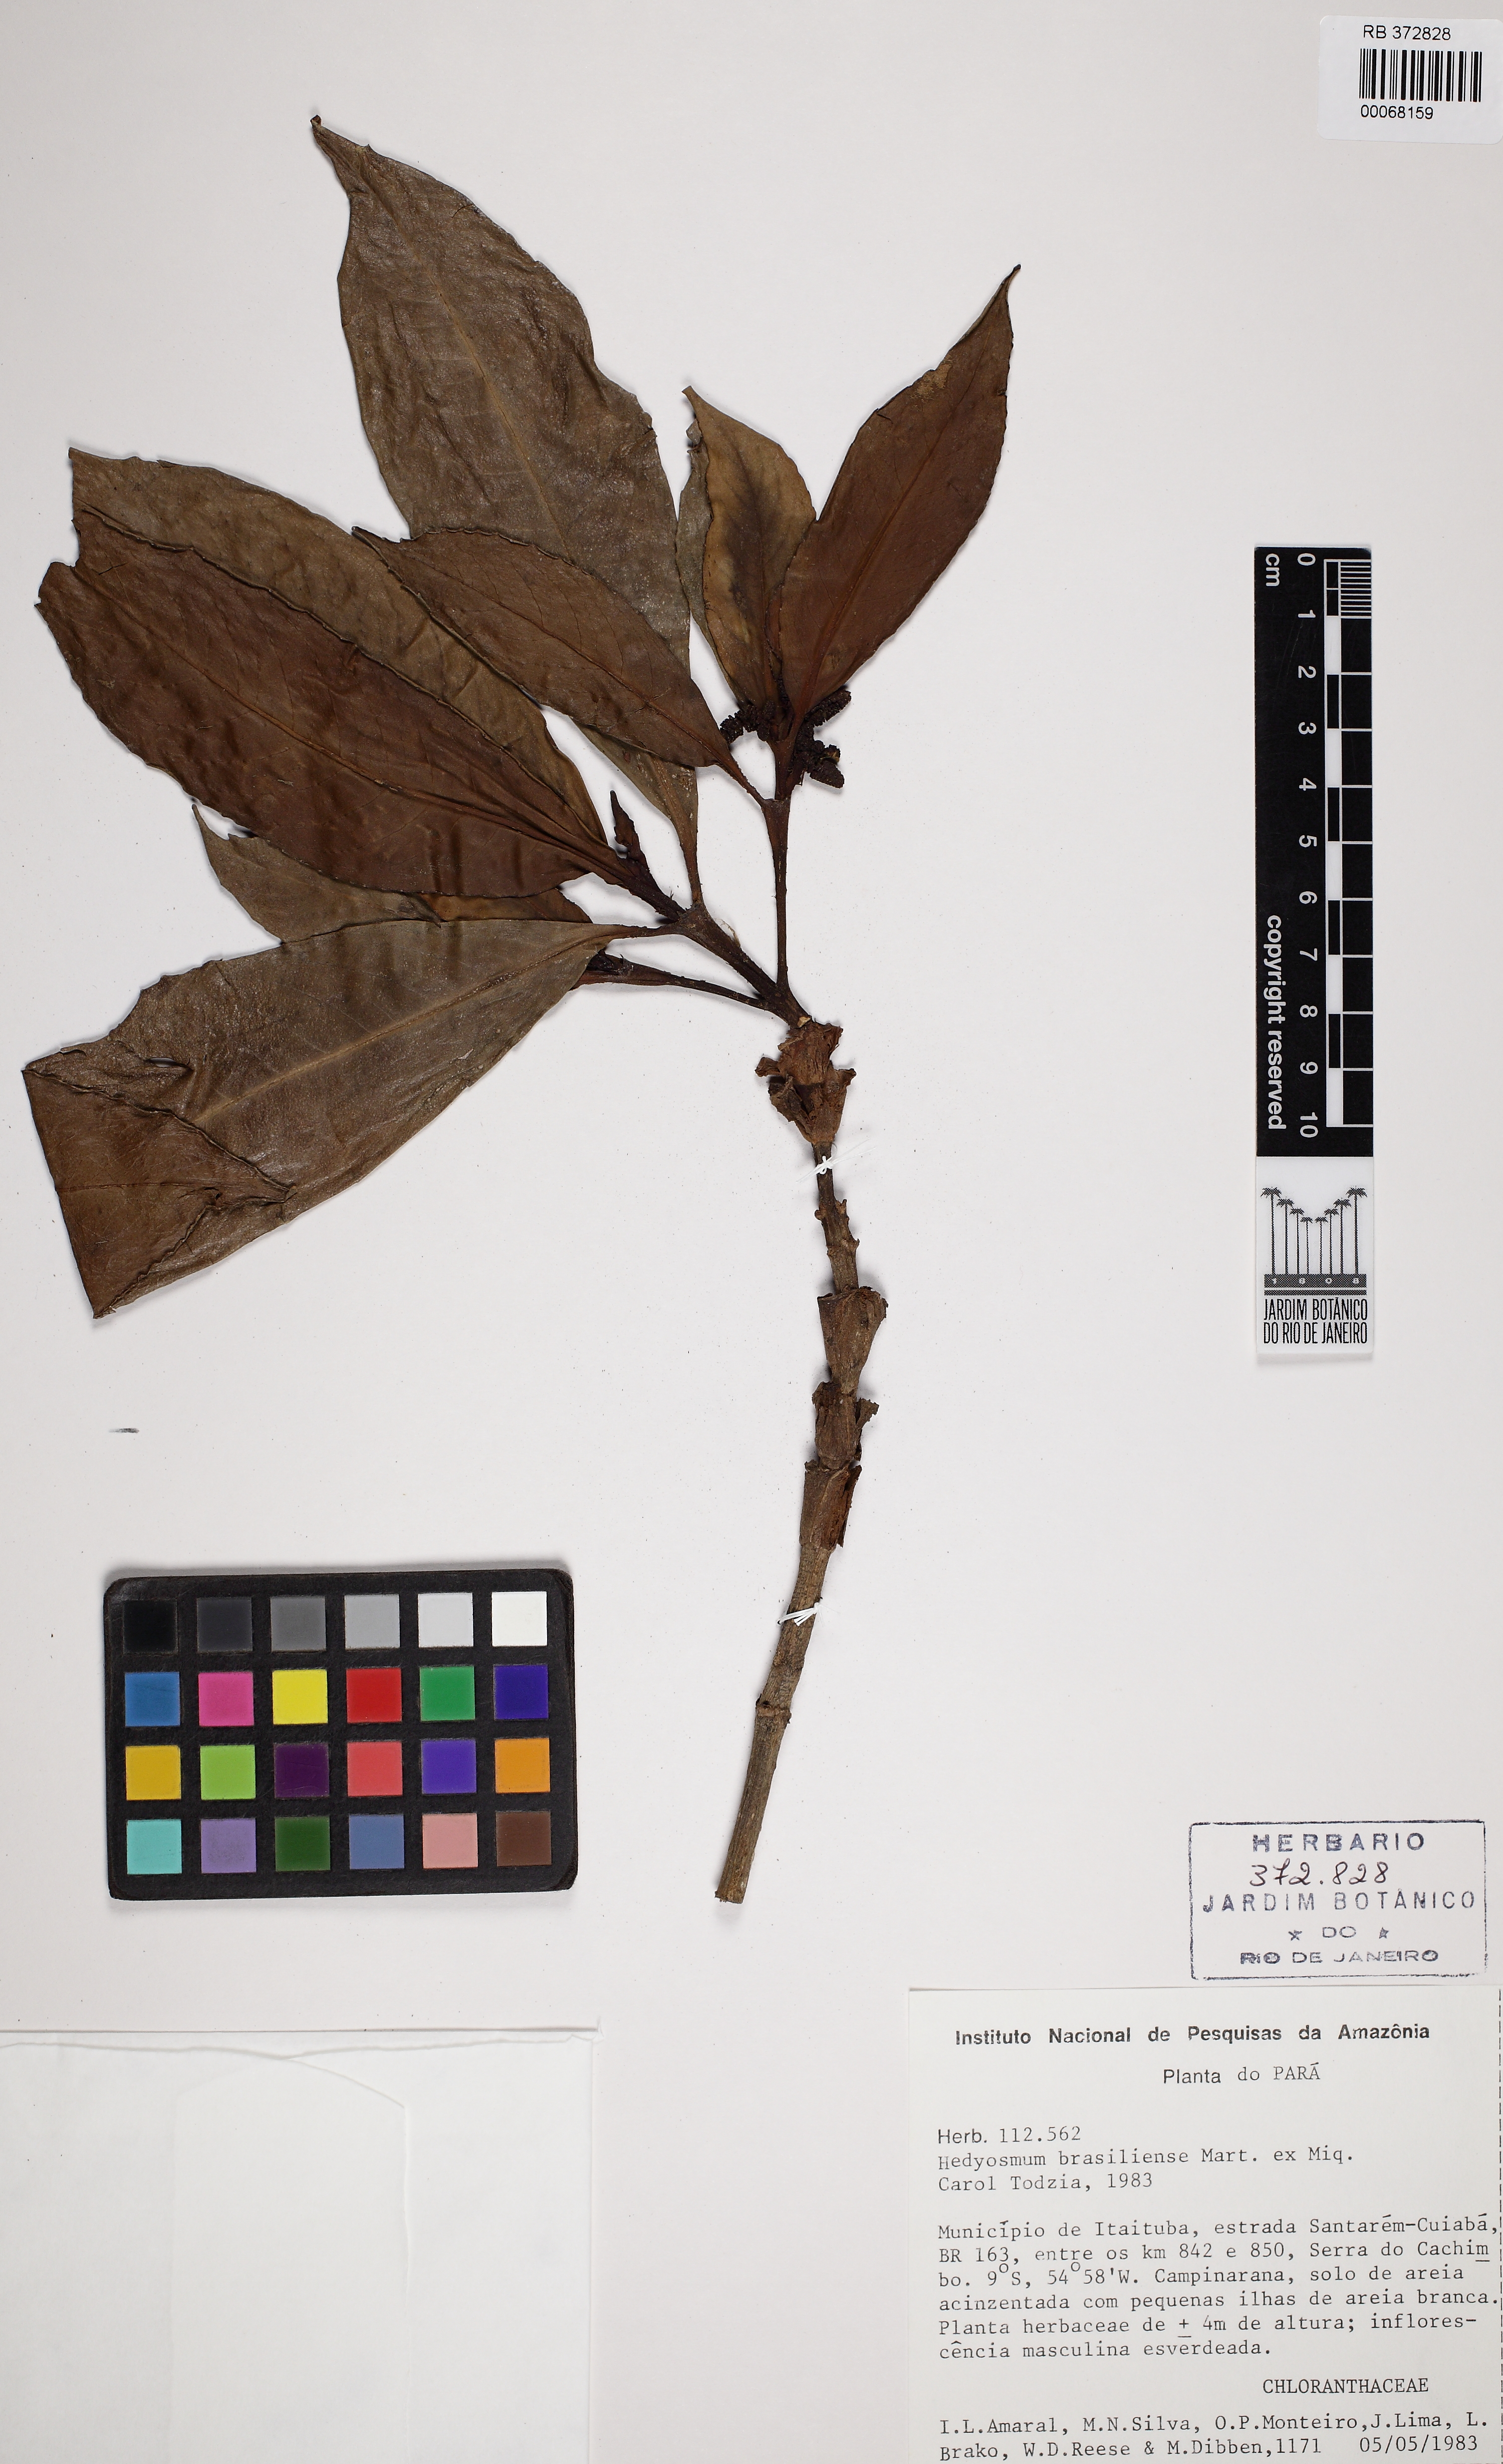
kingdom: Plantae
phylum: Tracheophyta
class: Magnoliopsida
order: Chloranthales
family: Chloranthaceae
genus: Hedyosmum
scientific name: Hedyosmum brasiliense
